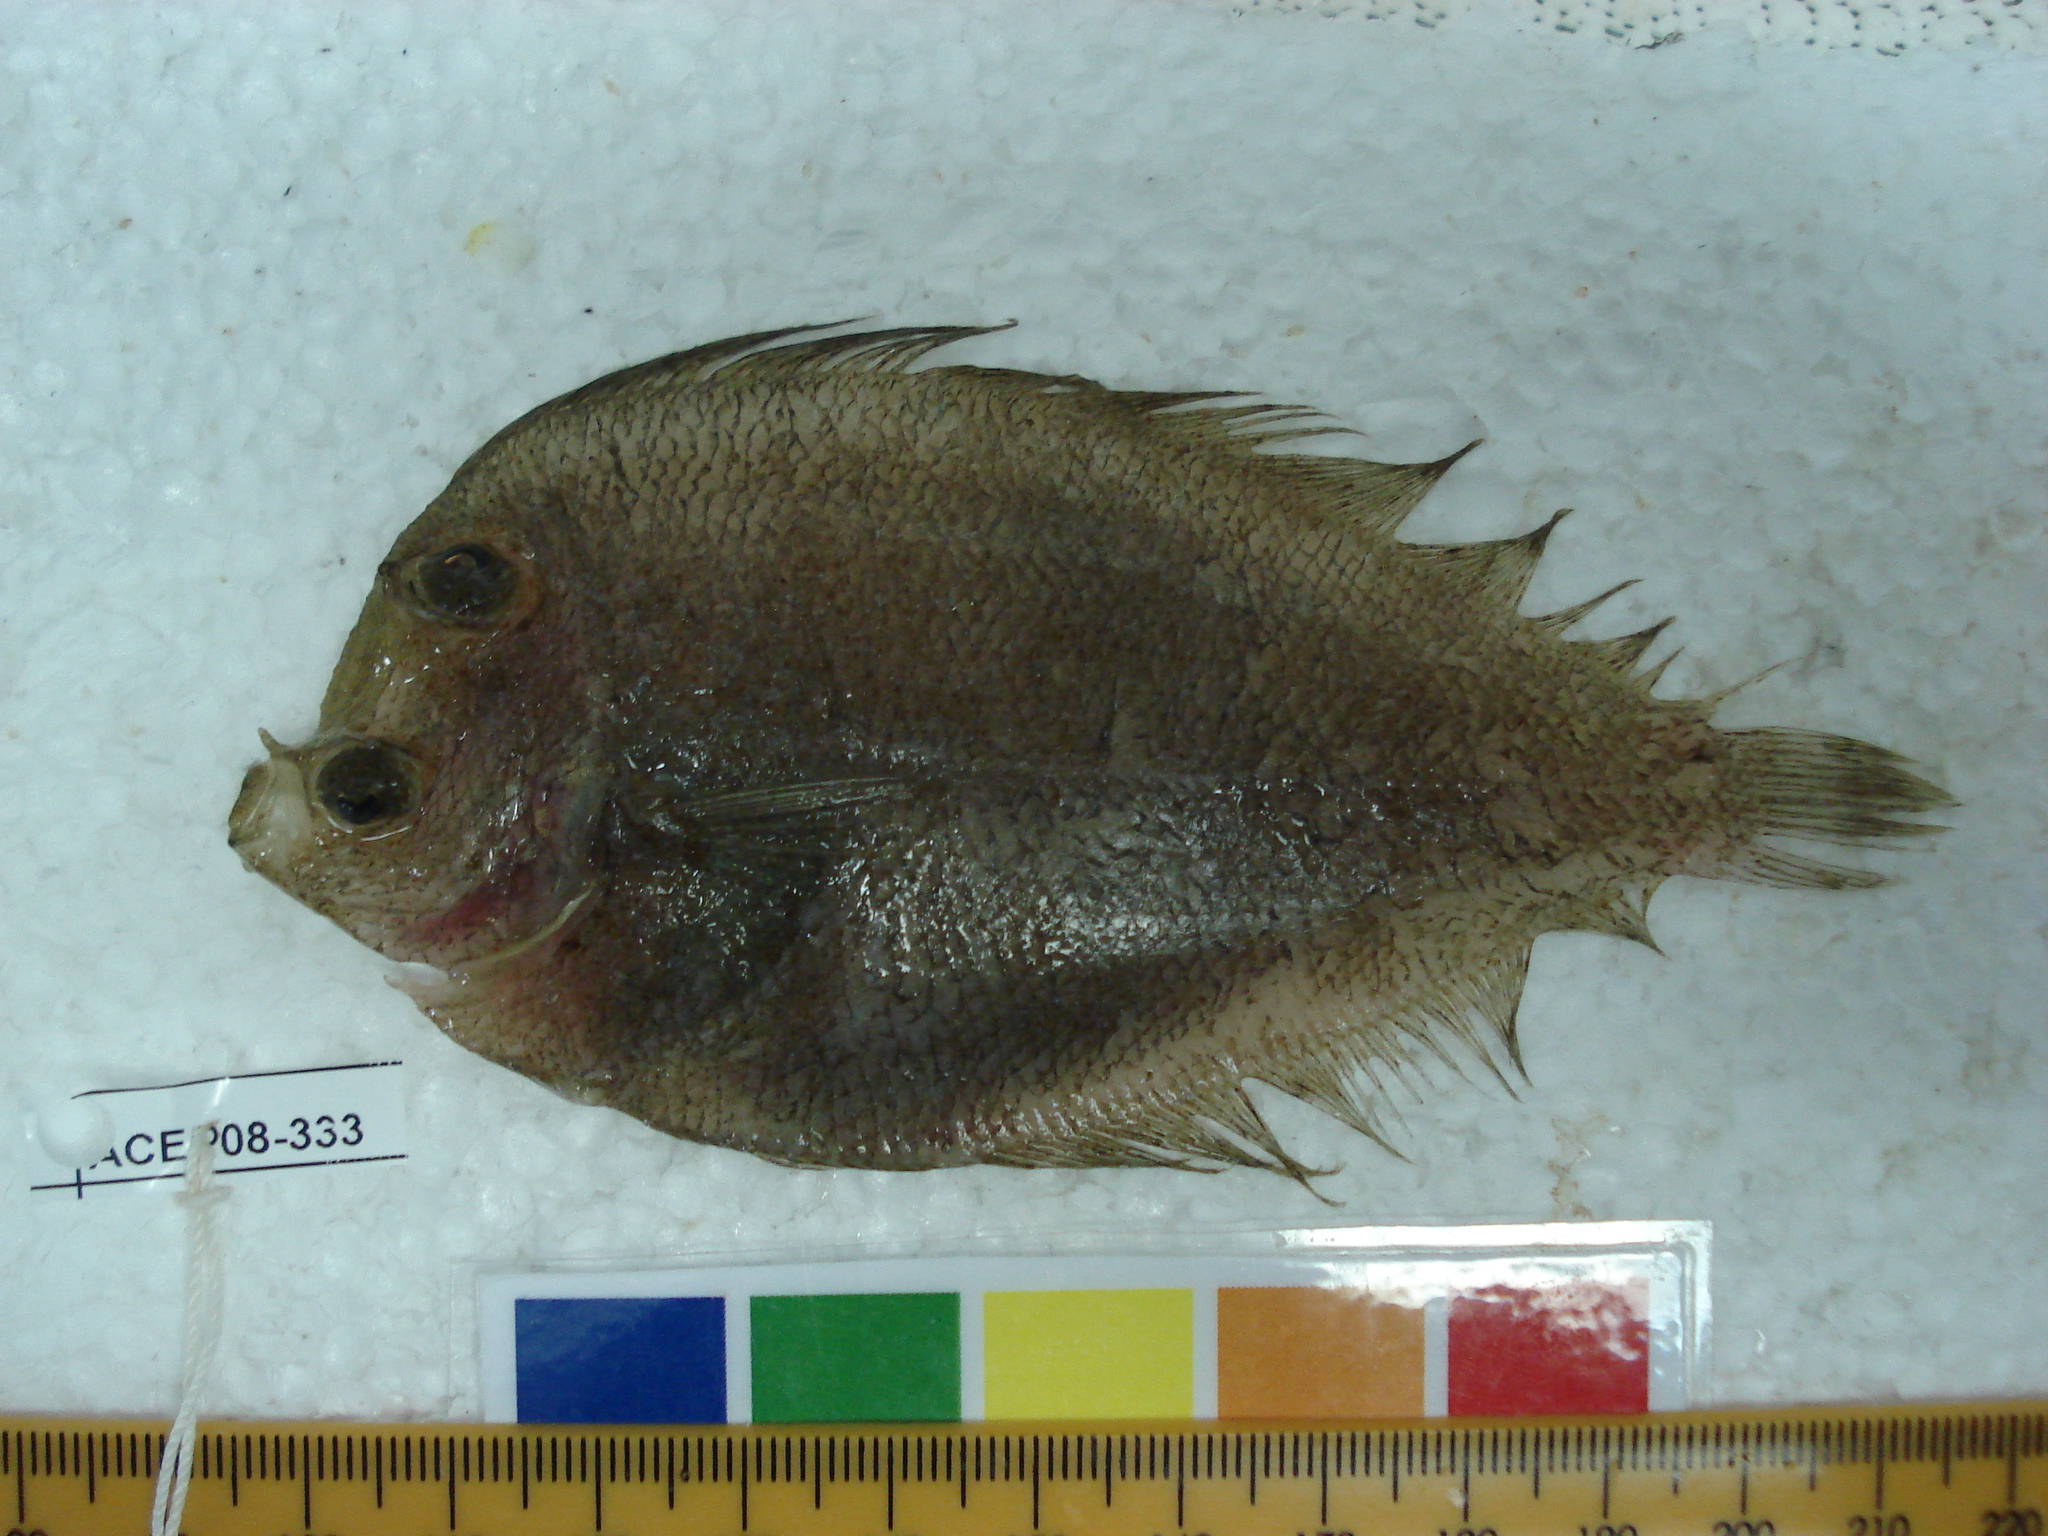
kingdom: Animalia
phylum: Chordata
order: Pleuronectiformes
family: Bothidae
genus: Bothus
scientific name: Bothus
